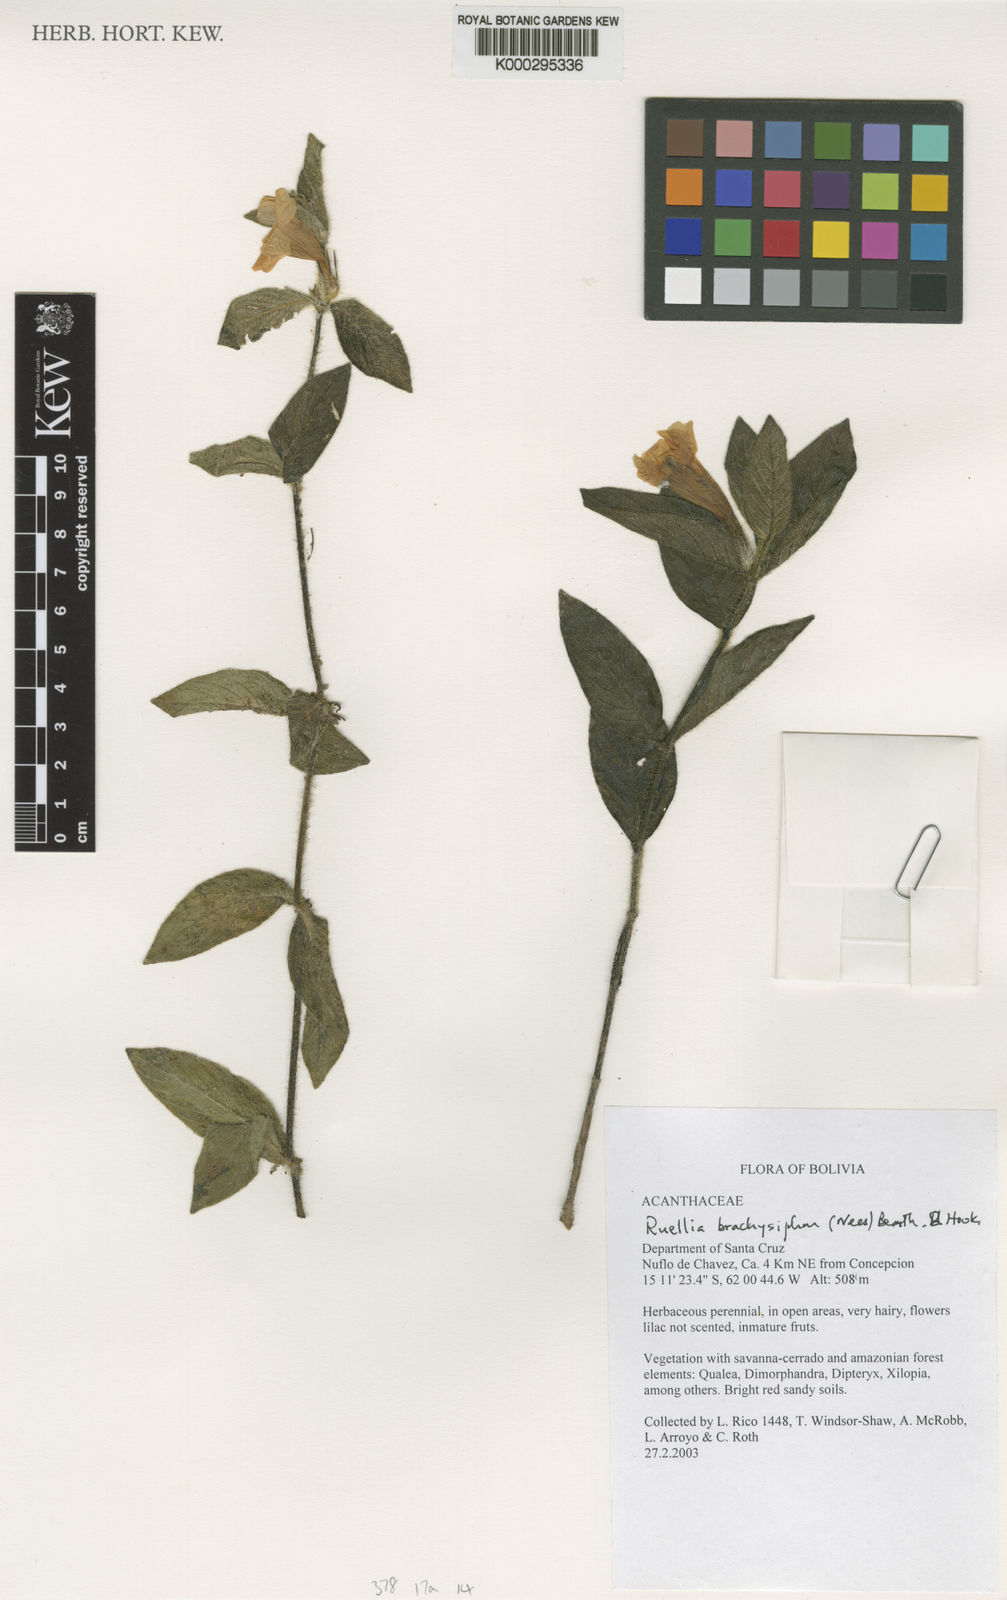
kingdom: Plantae
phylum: Tracheophyta
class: Magnoliopsida
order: Lamiales
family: Acanthaceae
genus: Ruellia
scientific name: Ruellia
